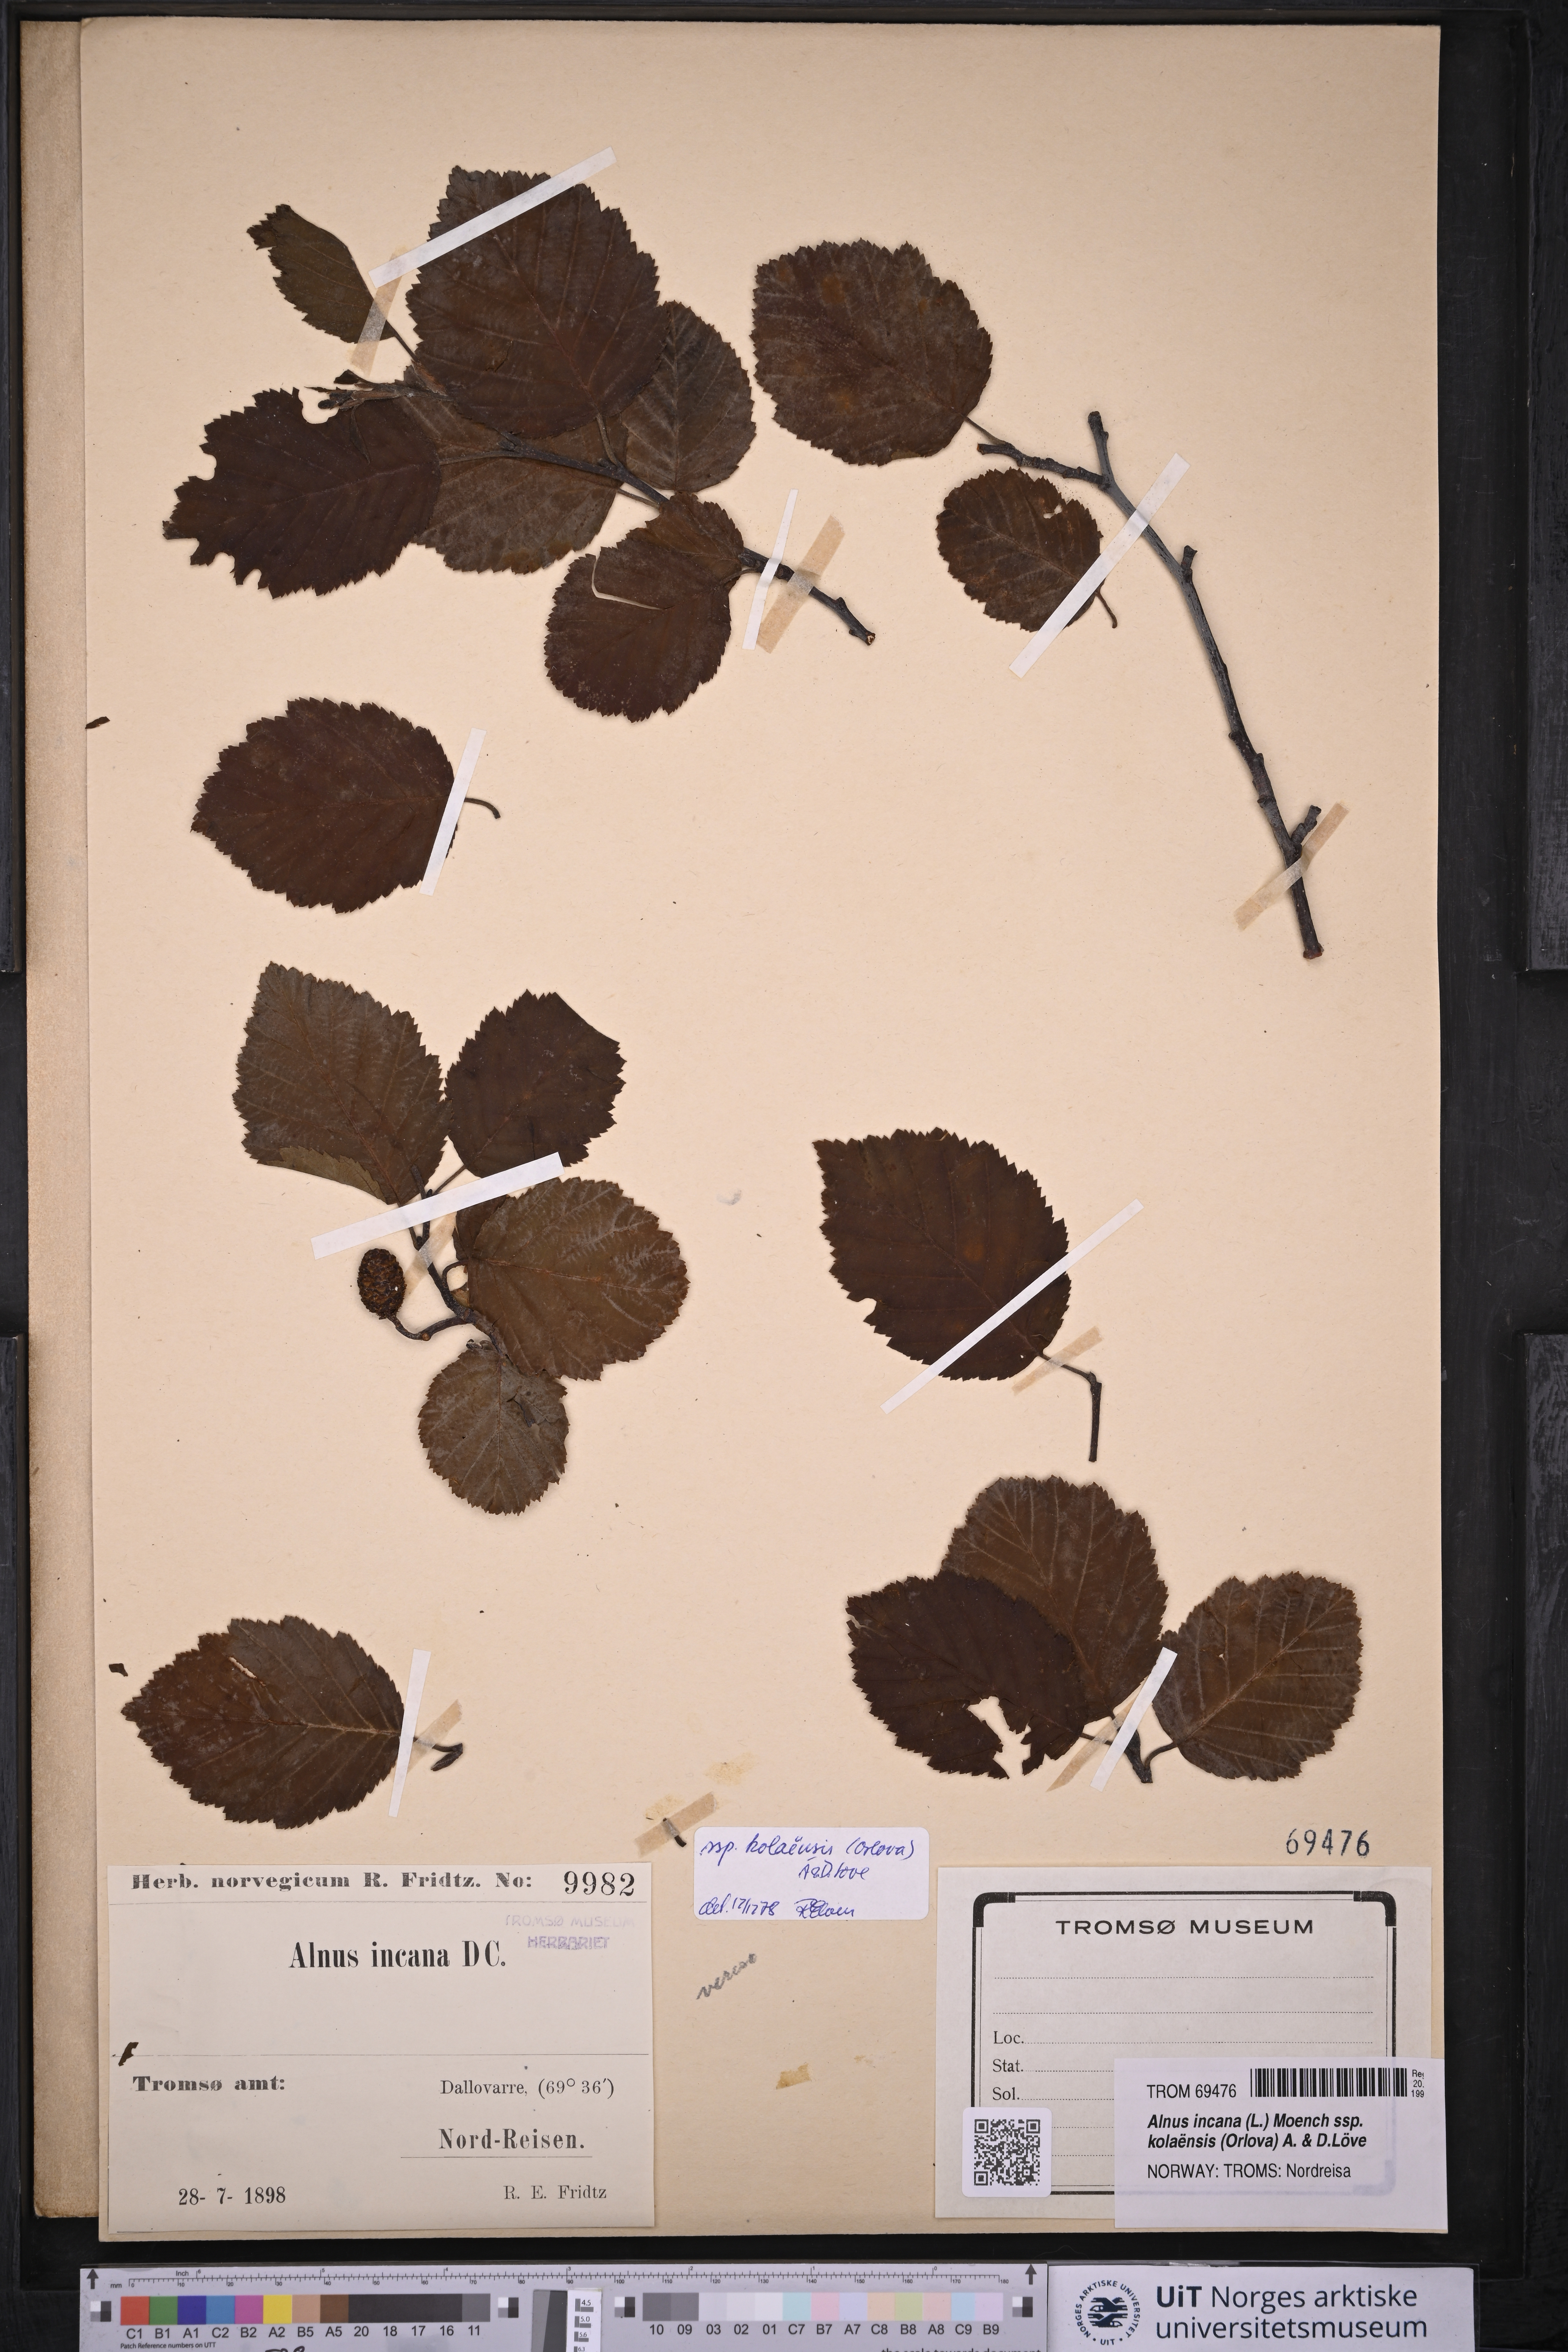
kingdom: Plantae
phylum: Tracheophyta
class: Magnoliopsida
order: Fagales
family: Betulaceae
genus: Alnus
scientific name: Alnus incana
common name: Grey alder
